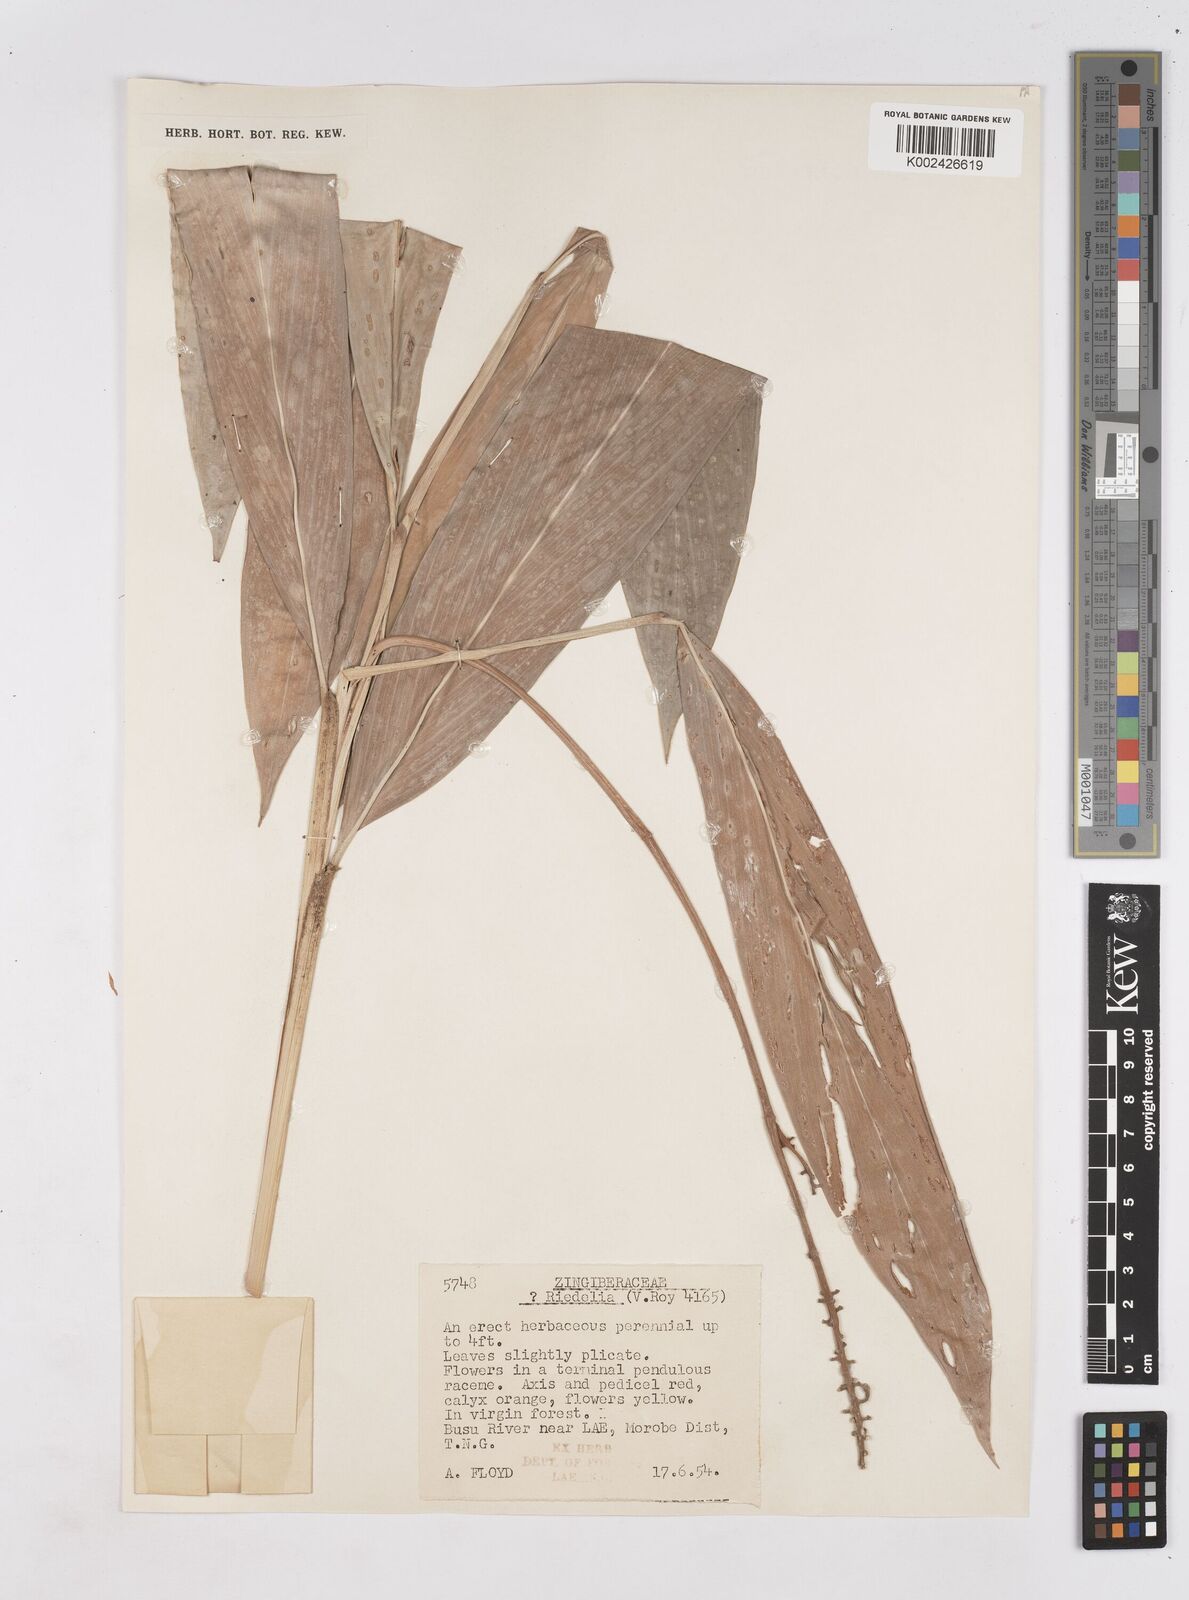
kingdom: Plantae
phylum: Tracheophyta
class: Liliopsida
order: Zingiberales
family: Zingiberaceae
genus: Riedelia
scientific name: Riedelia
